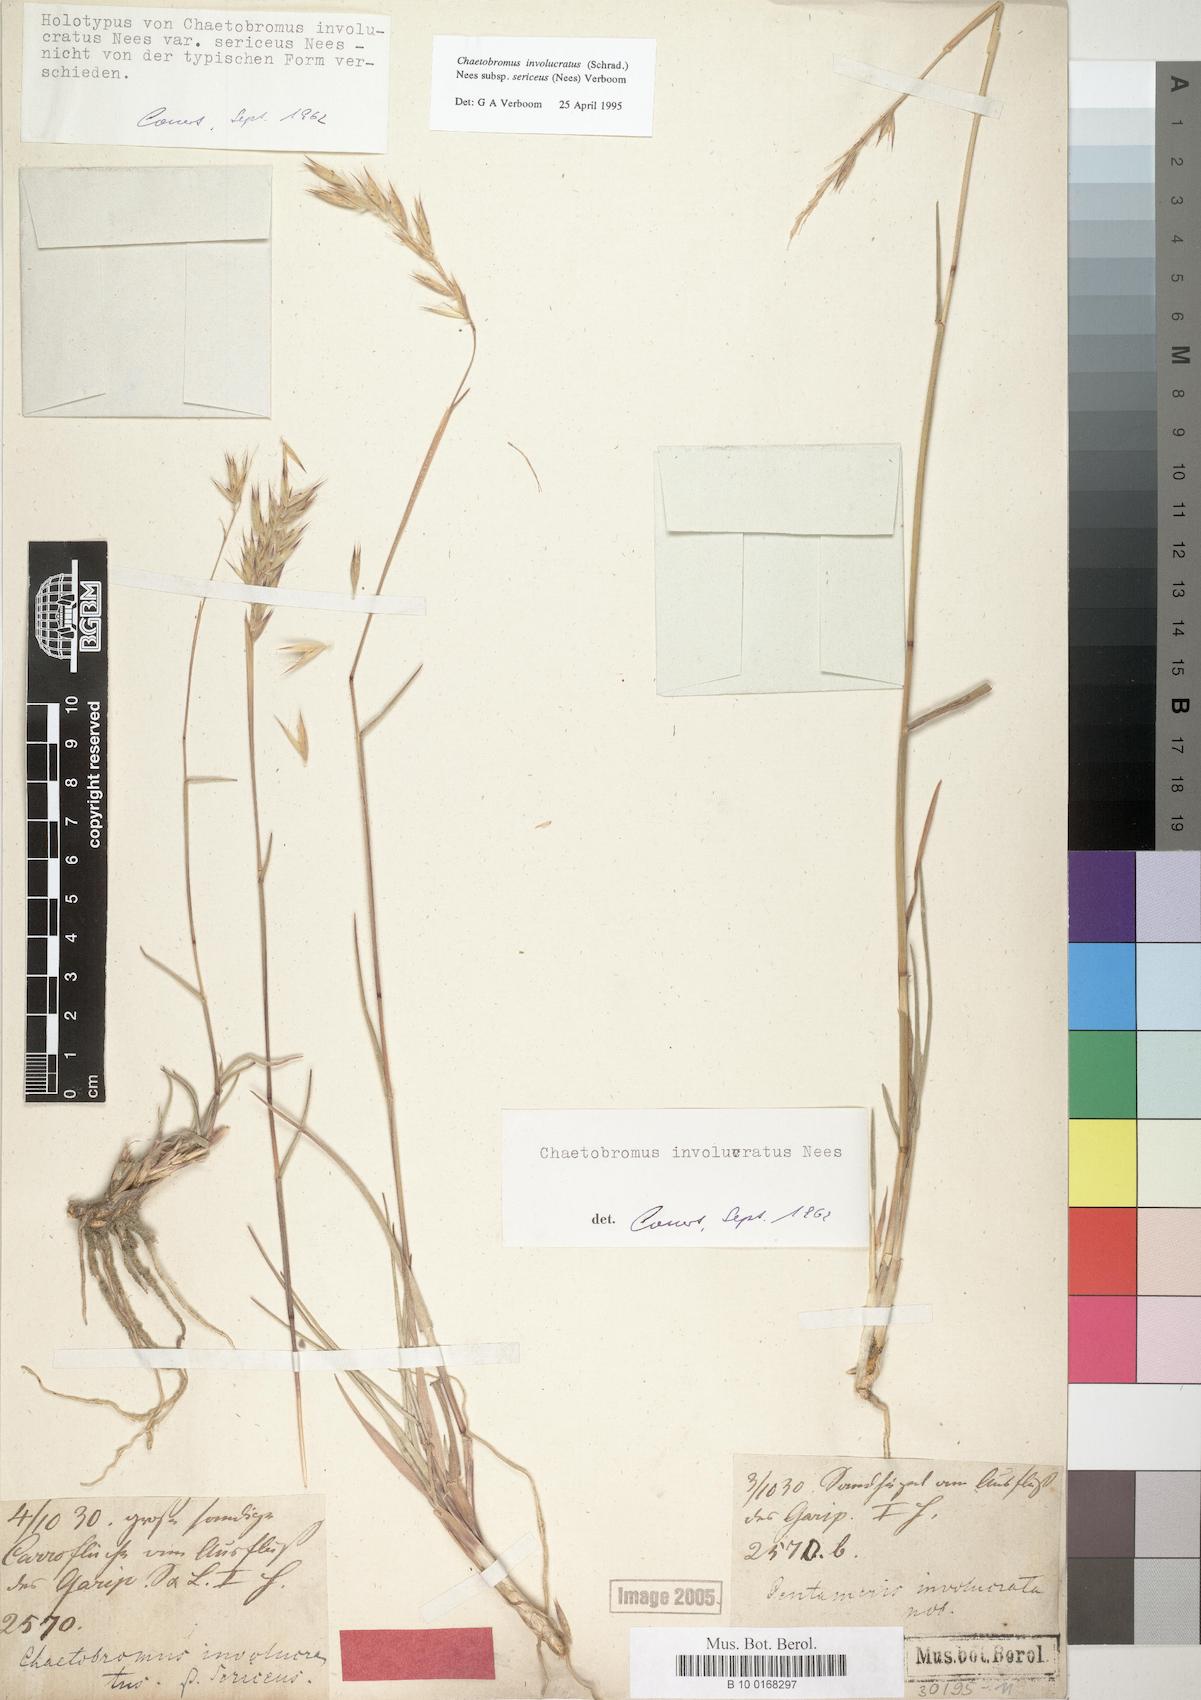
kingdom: Plantae
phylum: Tracheophyta
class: Liliopsida
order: Poales
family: Poaceae
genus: Chaetobromus
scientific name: Chaetobromus involucratus
